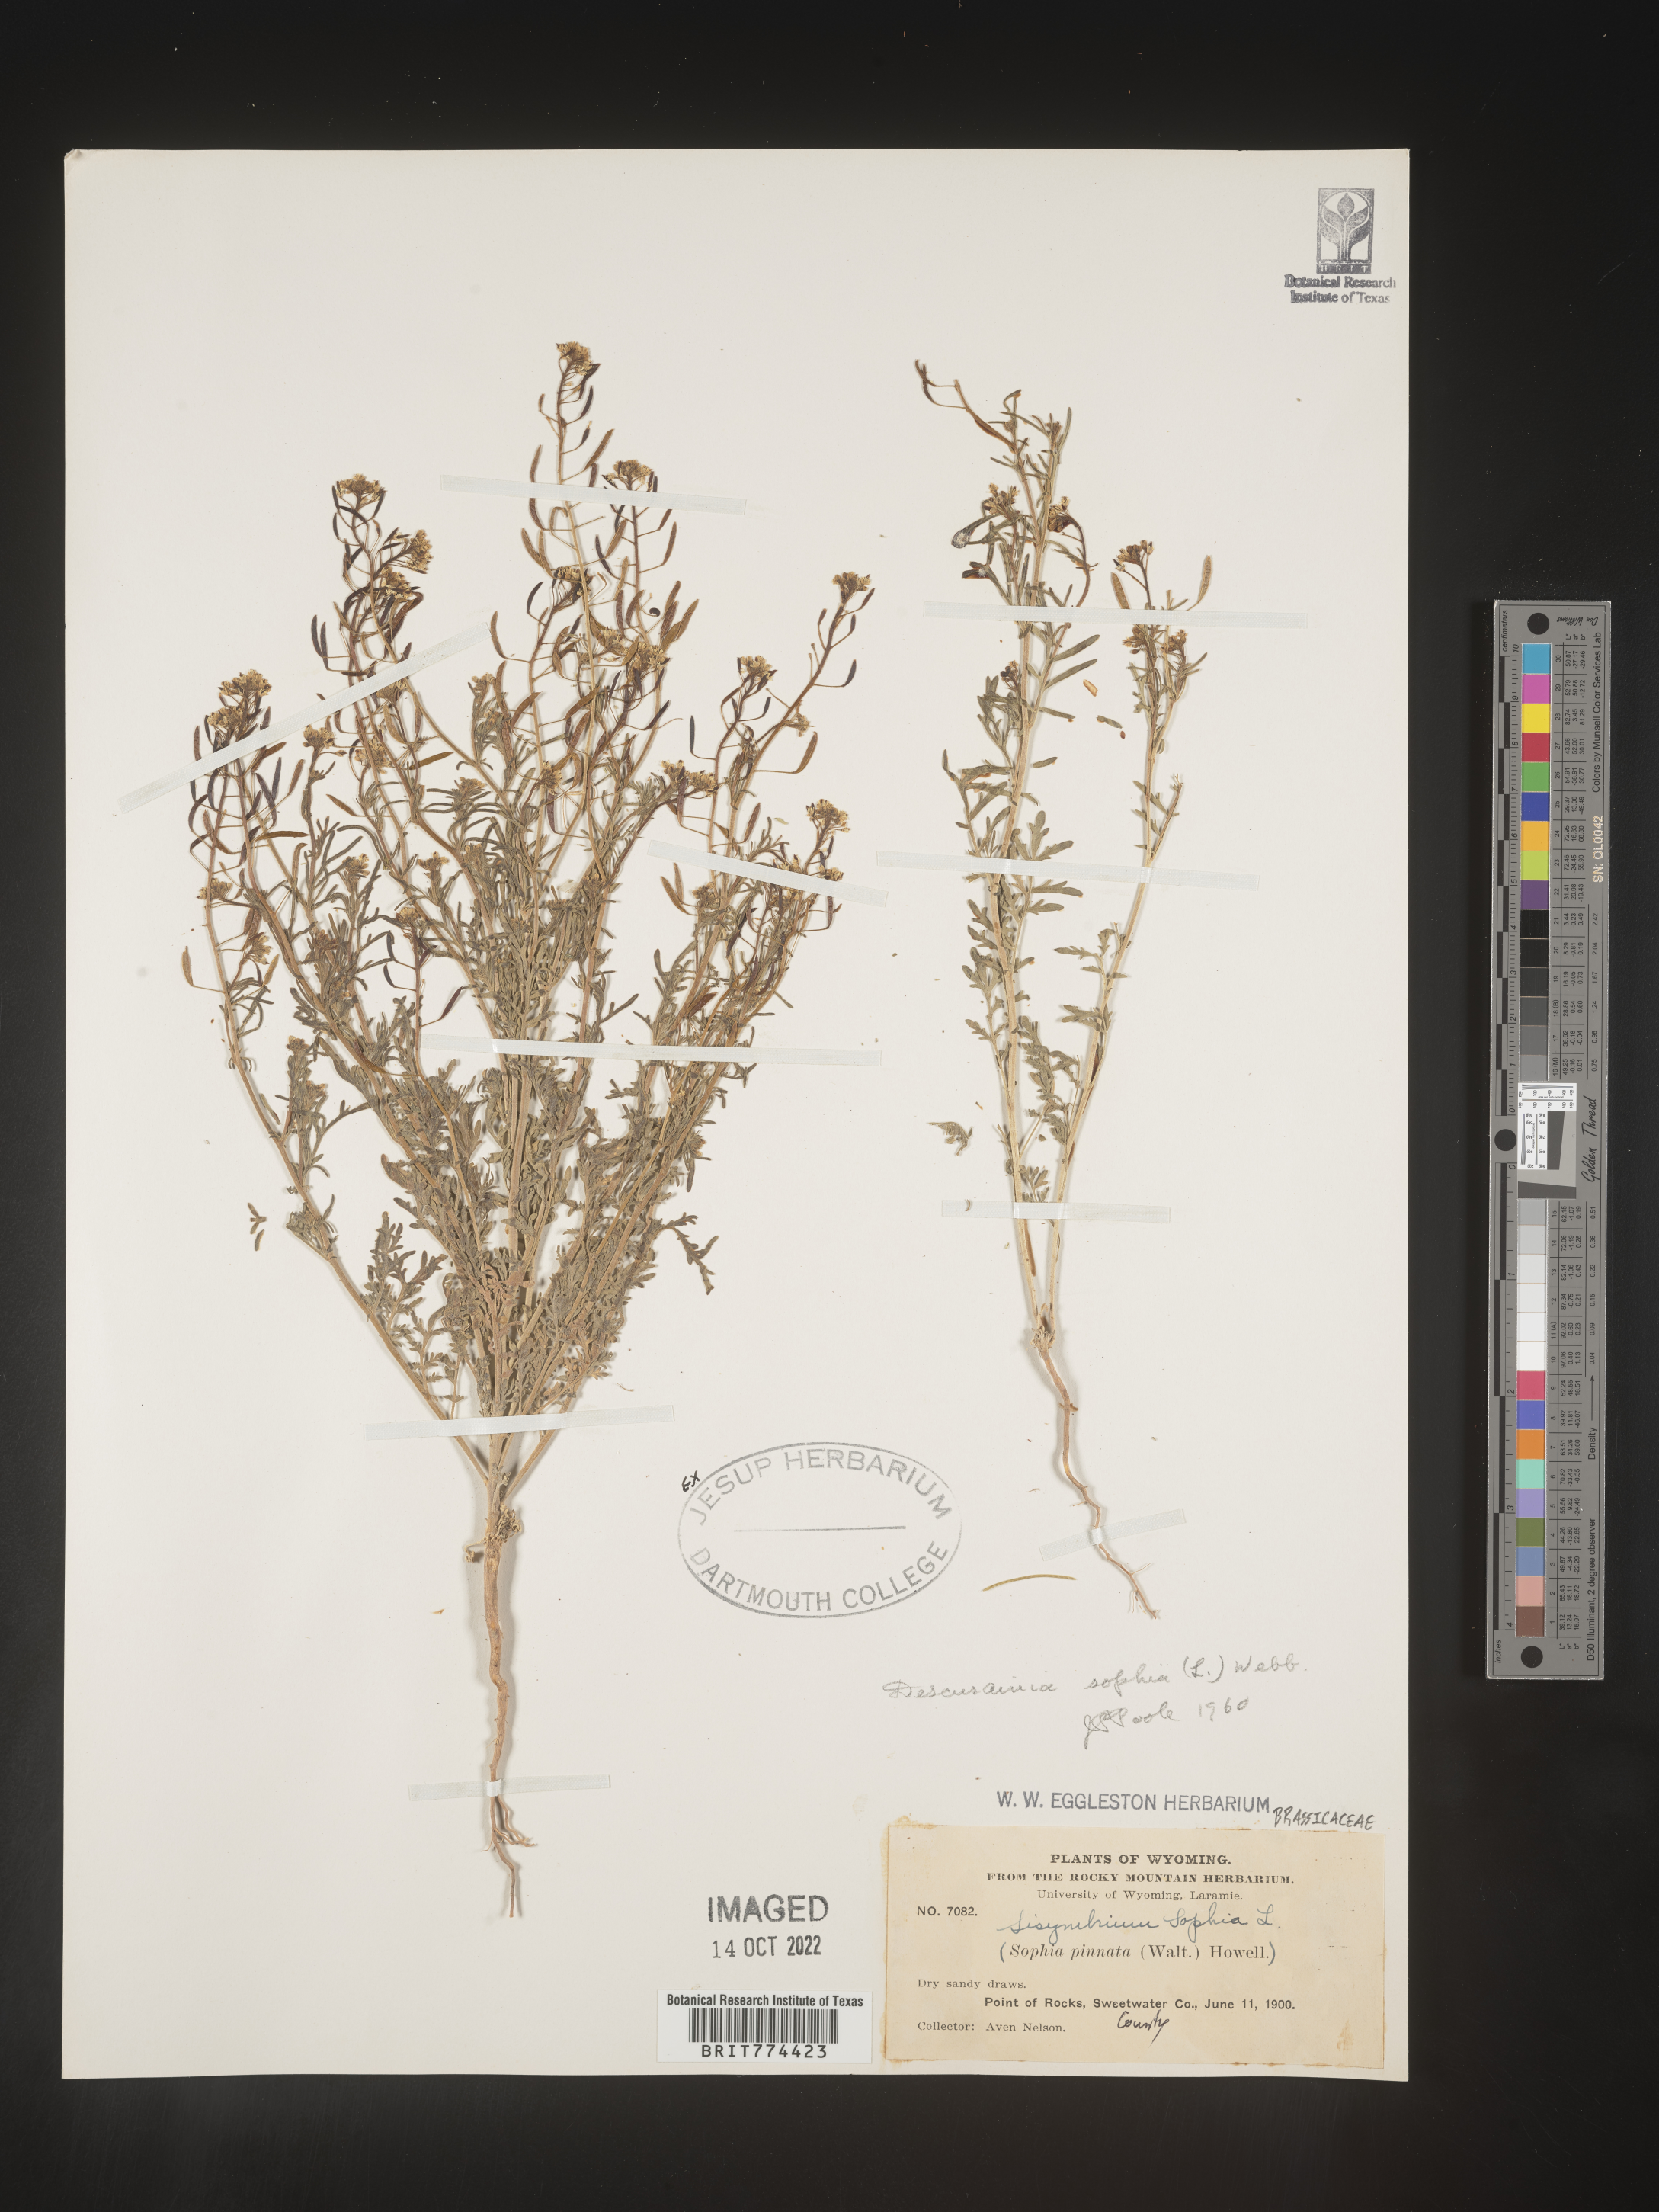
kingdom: Plantae
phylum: Tracheophyta
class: Magnoliopsida
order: Brassicales
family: Brassicaceae
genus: Descurainia
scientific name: Descurainia sophia
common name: Flixweed
